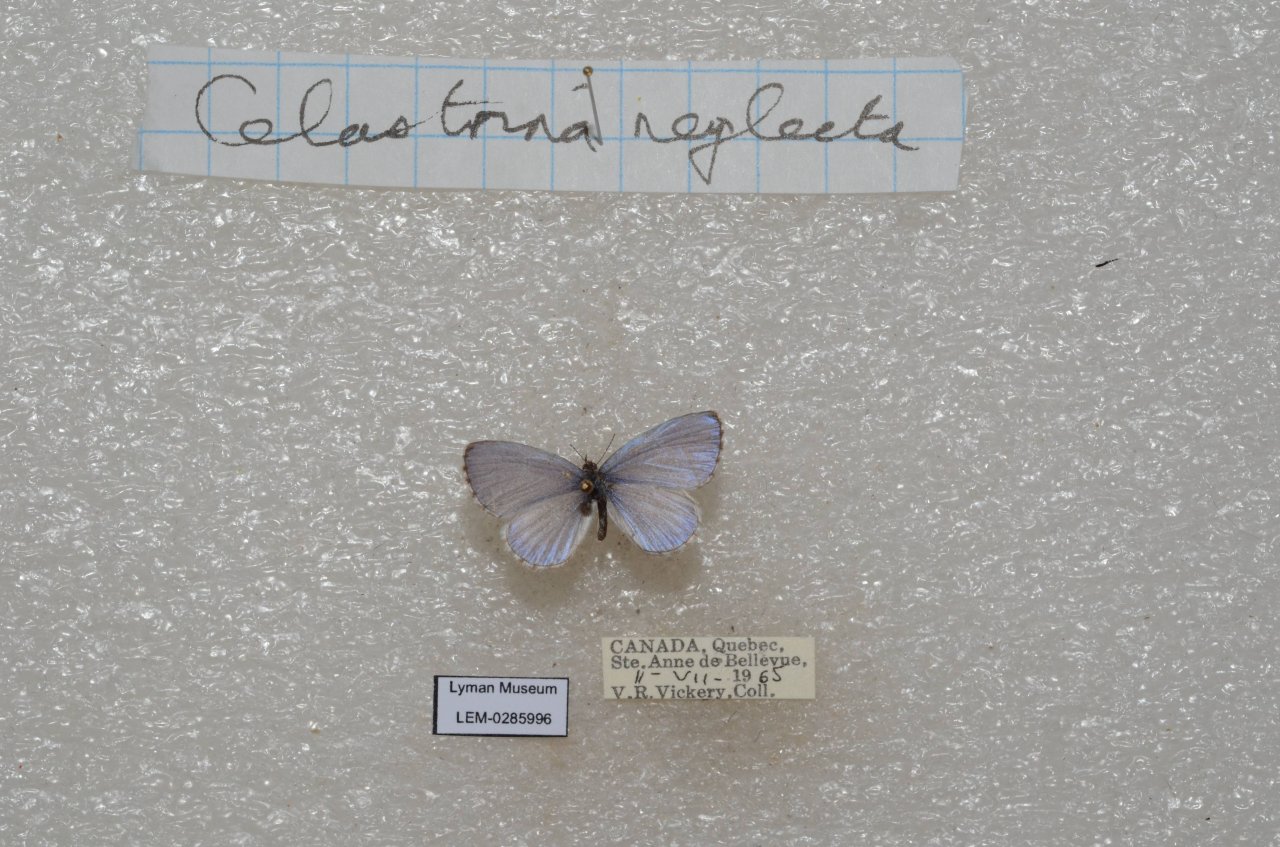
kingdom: Animalia
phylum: Arthropoda
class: Insecta
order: Lepidoptera
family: Lycaenidae
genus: Celastrina
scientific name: Celastrina lucia
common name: Northern Spring Azure
